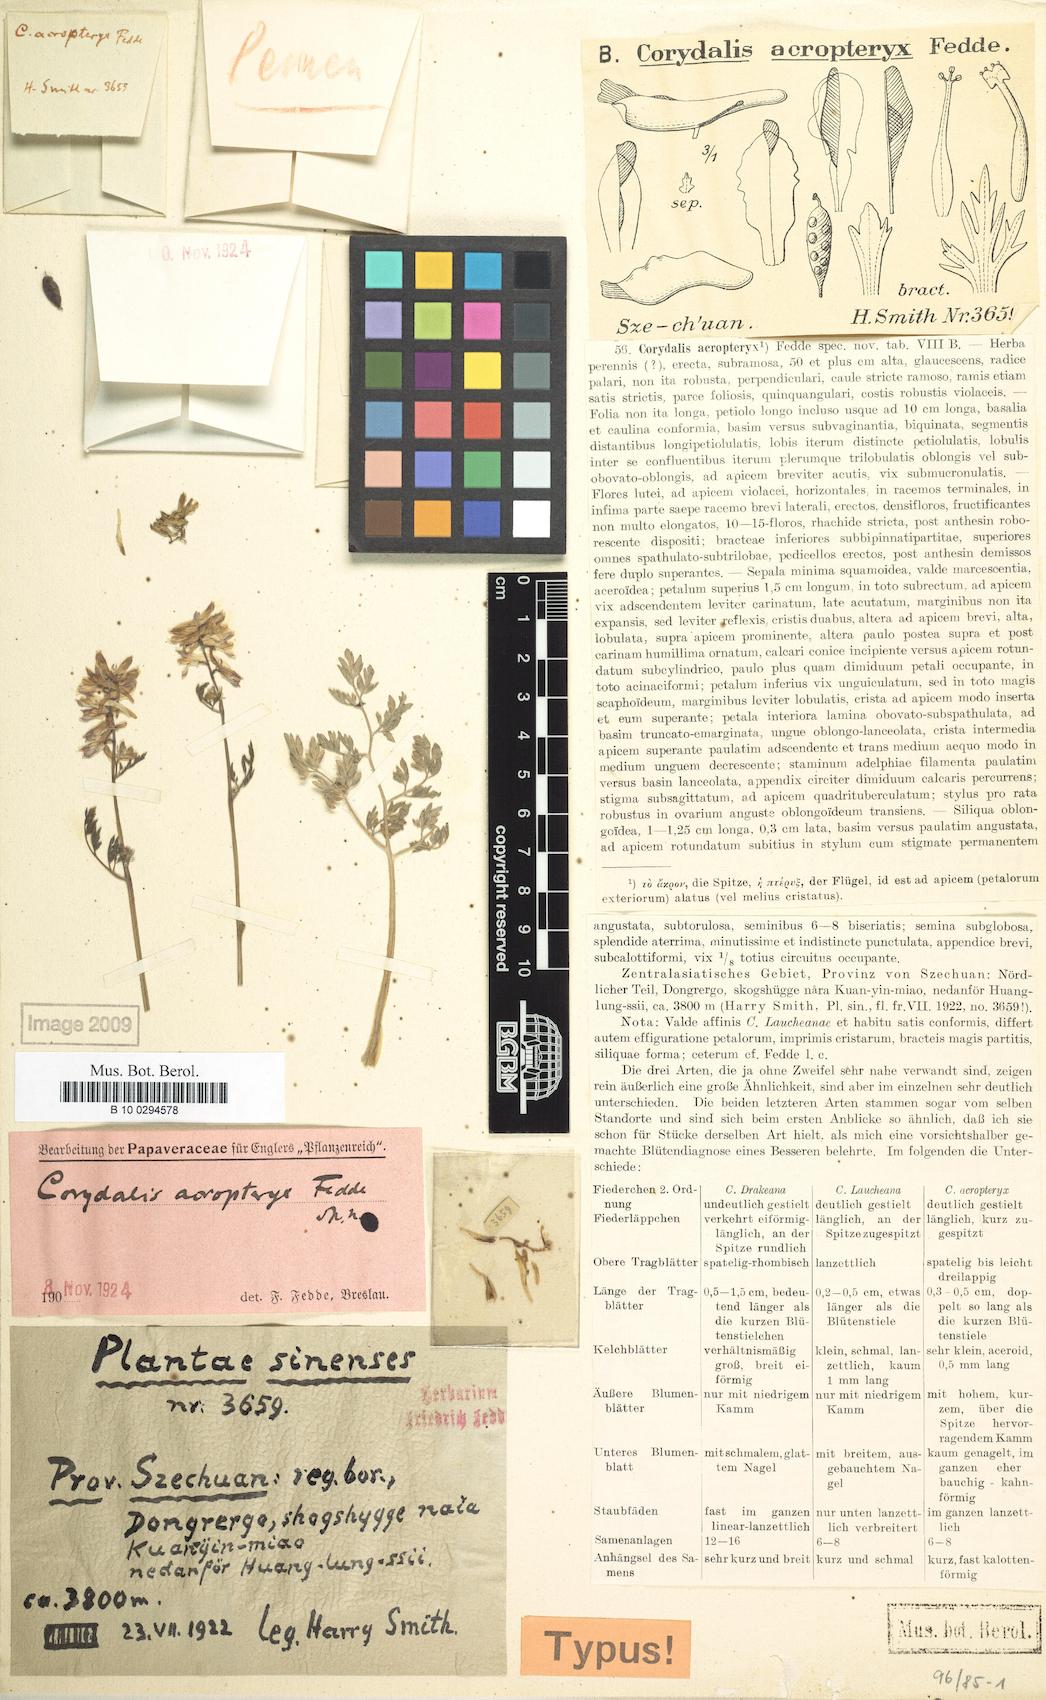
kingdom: Plantae
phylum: Tracheophyta
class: Magnoliopsida
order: Ranunculales
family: Papaveraceae
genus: Corydalis
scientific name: Corydalis acropteryx
